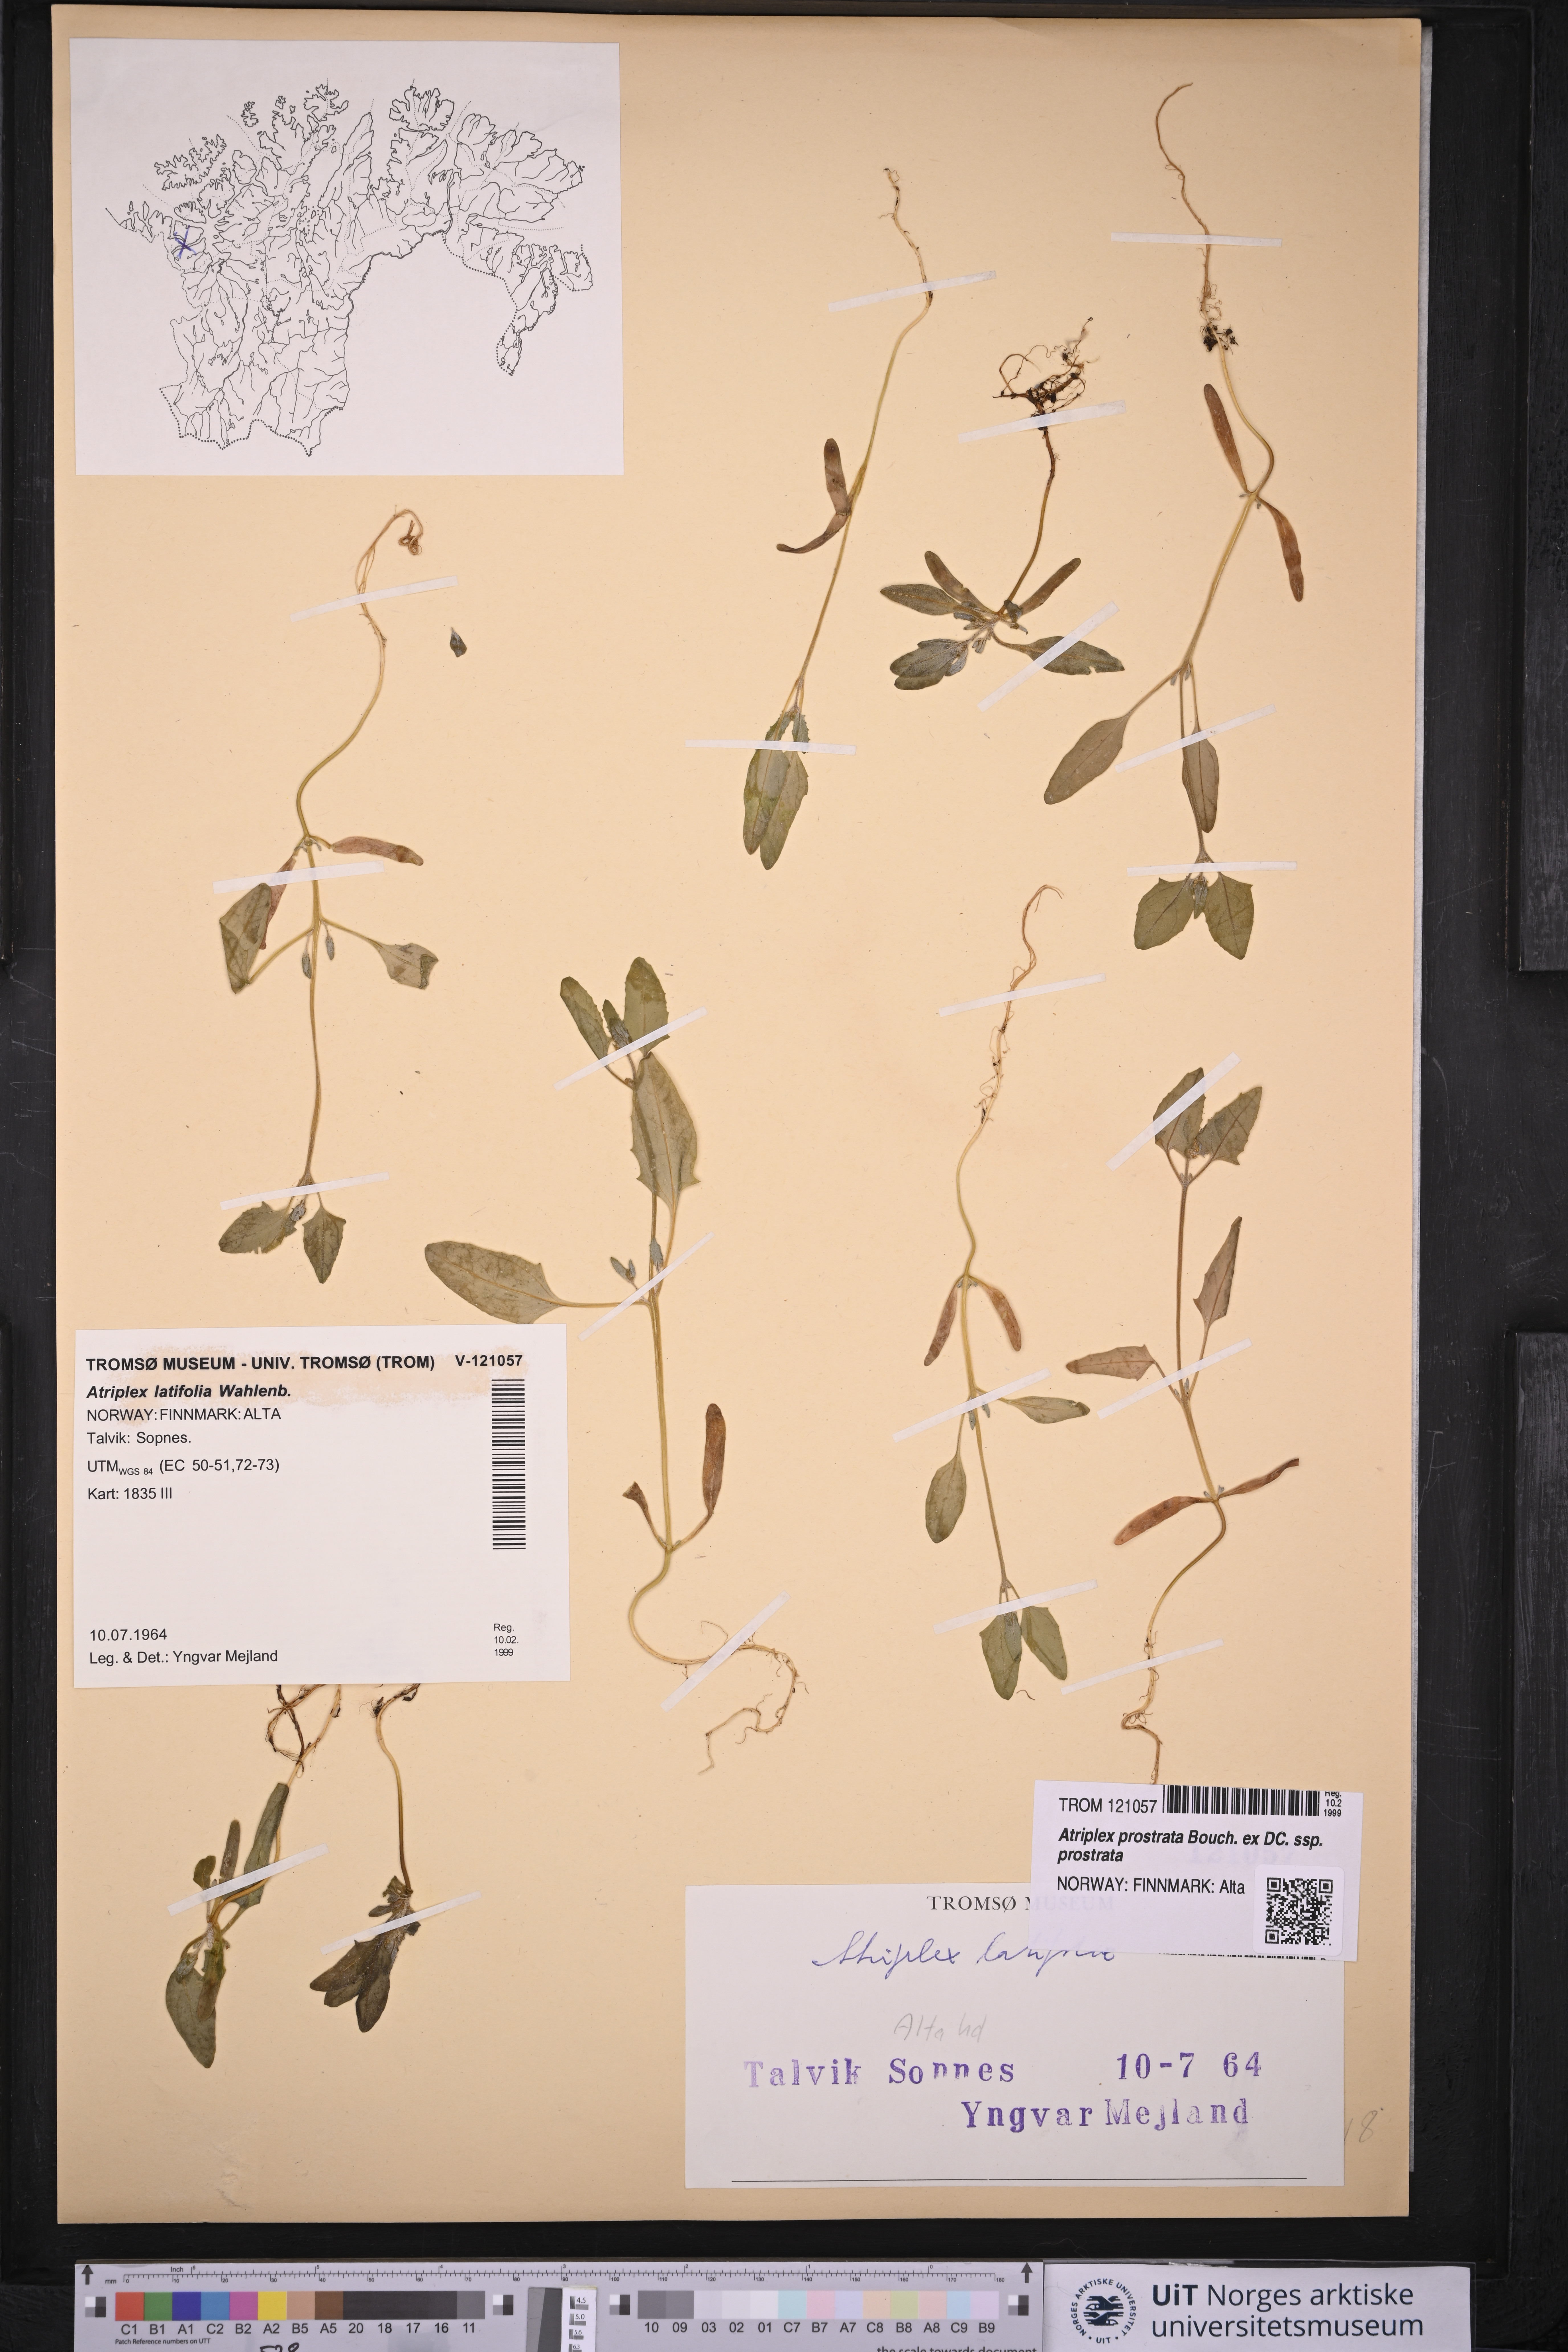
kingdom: Plantae
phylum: Tracheophyta
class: Magnoliopsida
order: Caryophyllales
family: Amaranthaceae
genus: Atriplex
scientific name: Atriplex prostrata
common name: Spear-leaved orache
